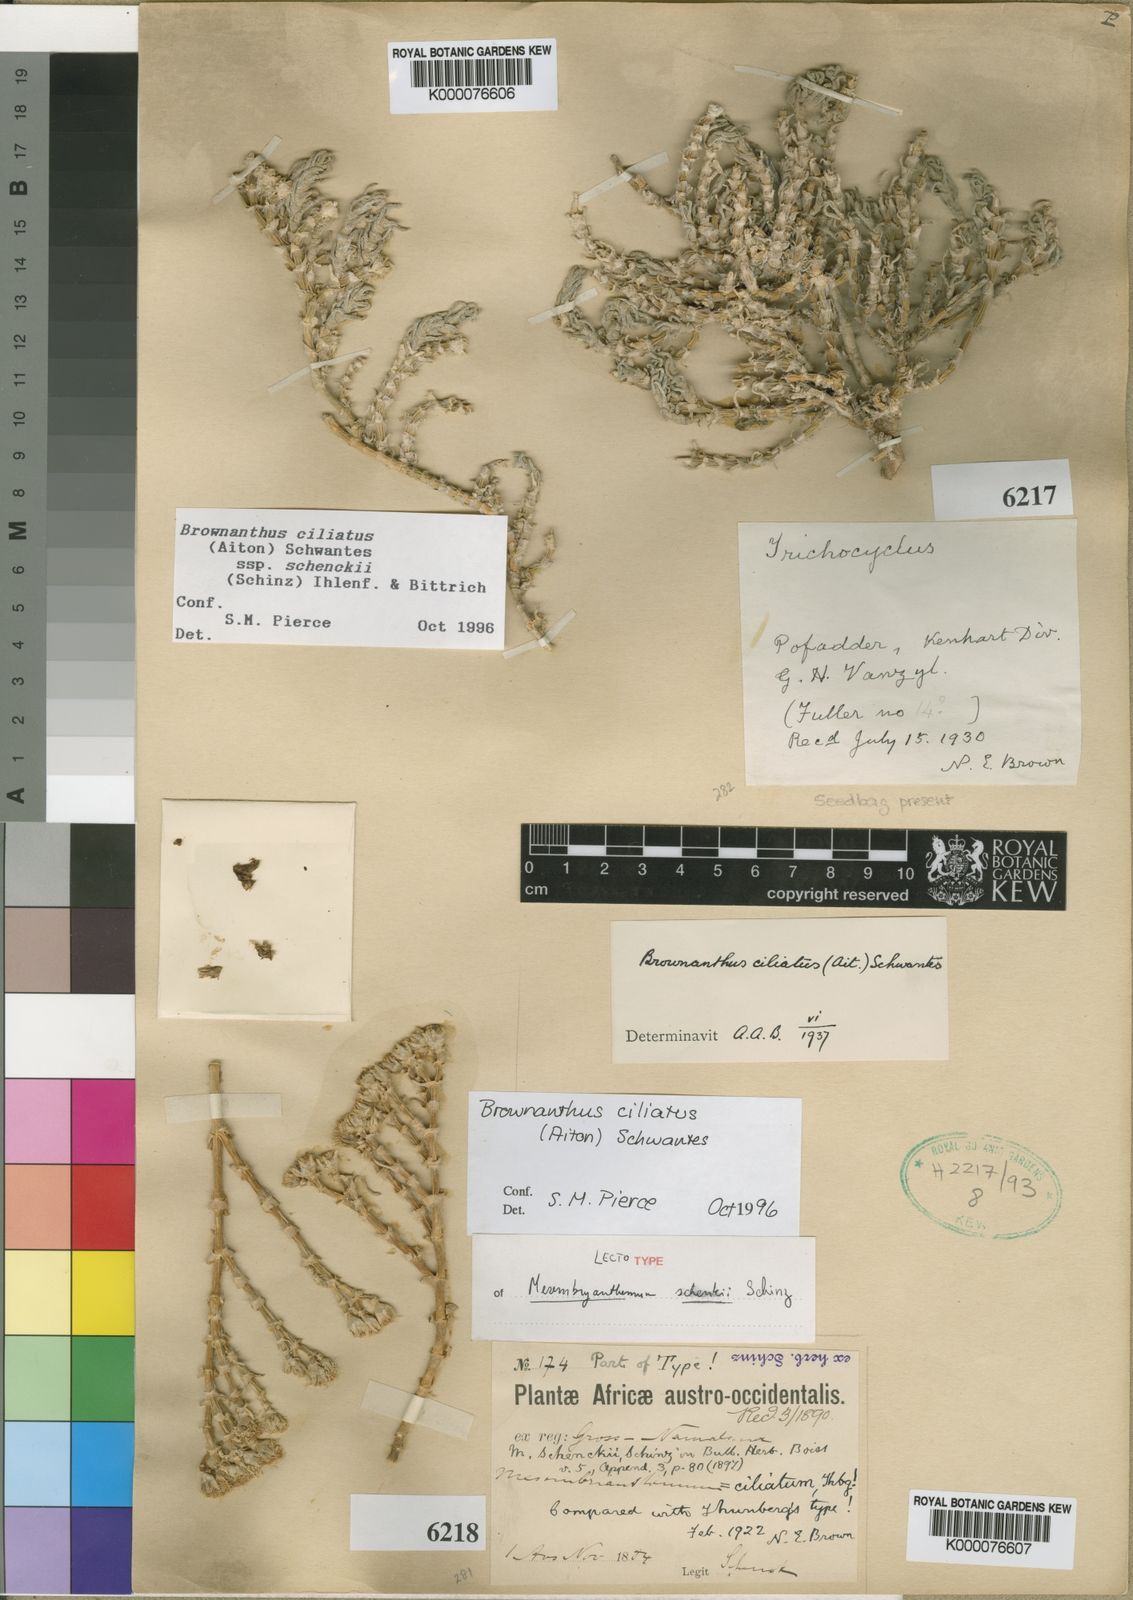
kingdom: Plantae
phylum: Tracheophyta
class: Magnoliopsida
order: Caryophyllales
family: Aizoaceae
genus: Mesembryanthemum
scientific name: Mesembryanthemum vaginatum
